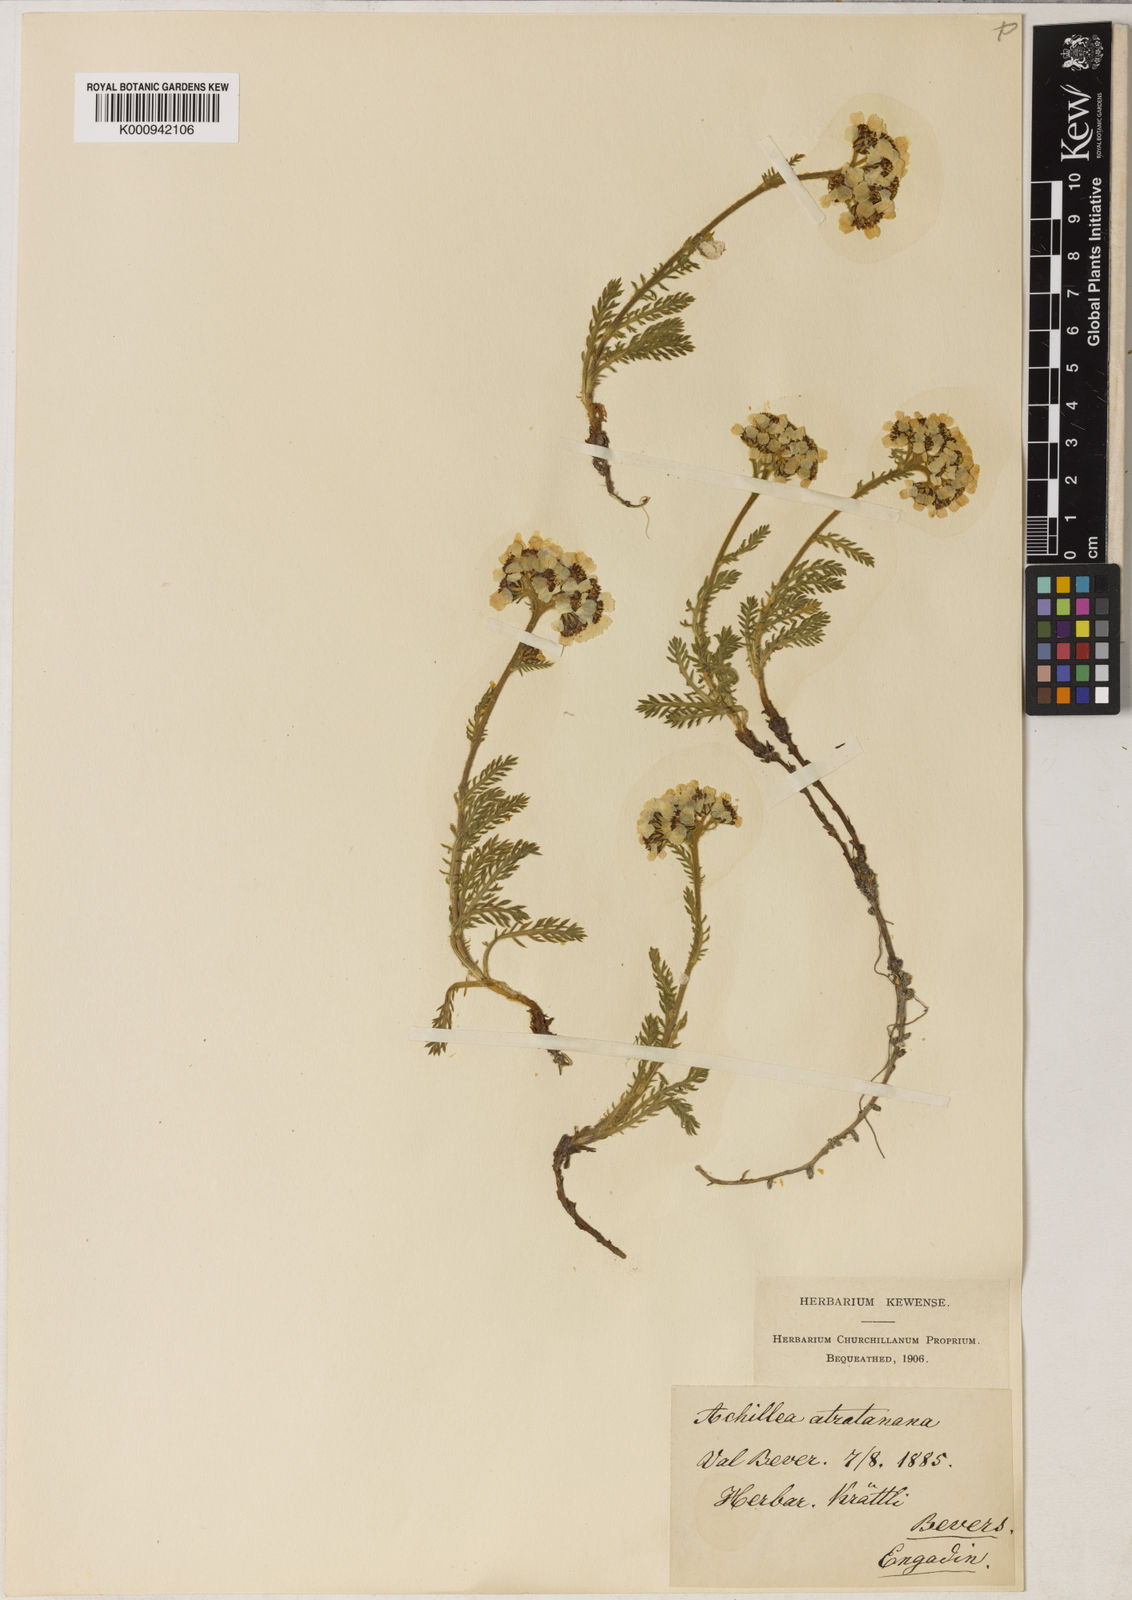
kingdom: Plantae
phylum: Tracheophyta
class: Magnoliopsida
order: Asterales
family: Asteraceae
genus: Achillea
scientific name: Achillea atrata
